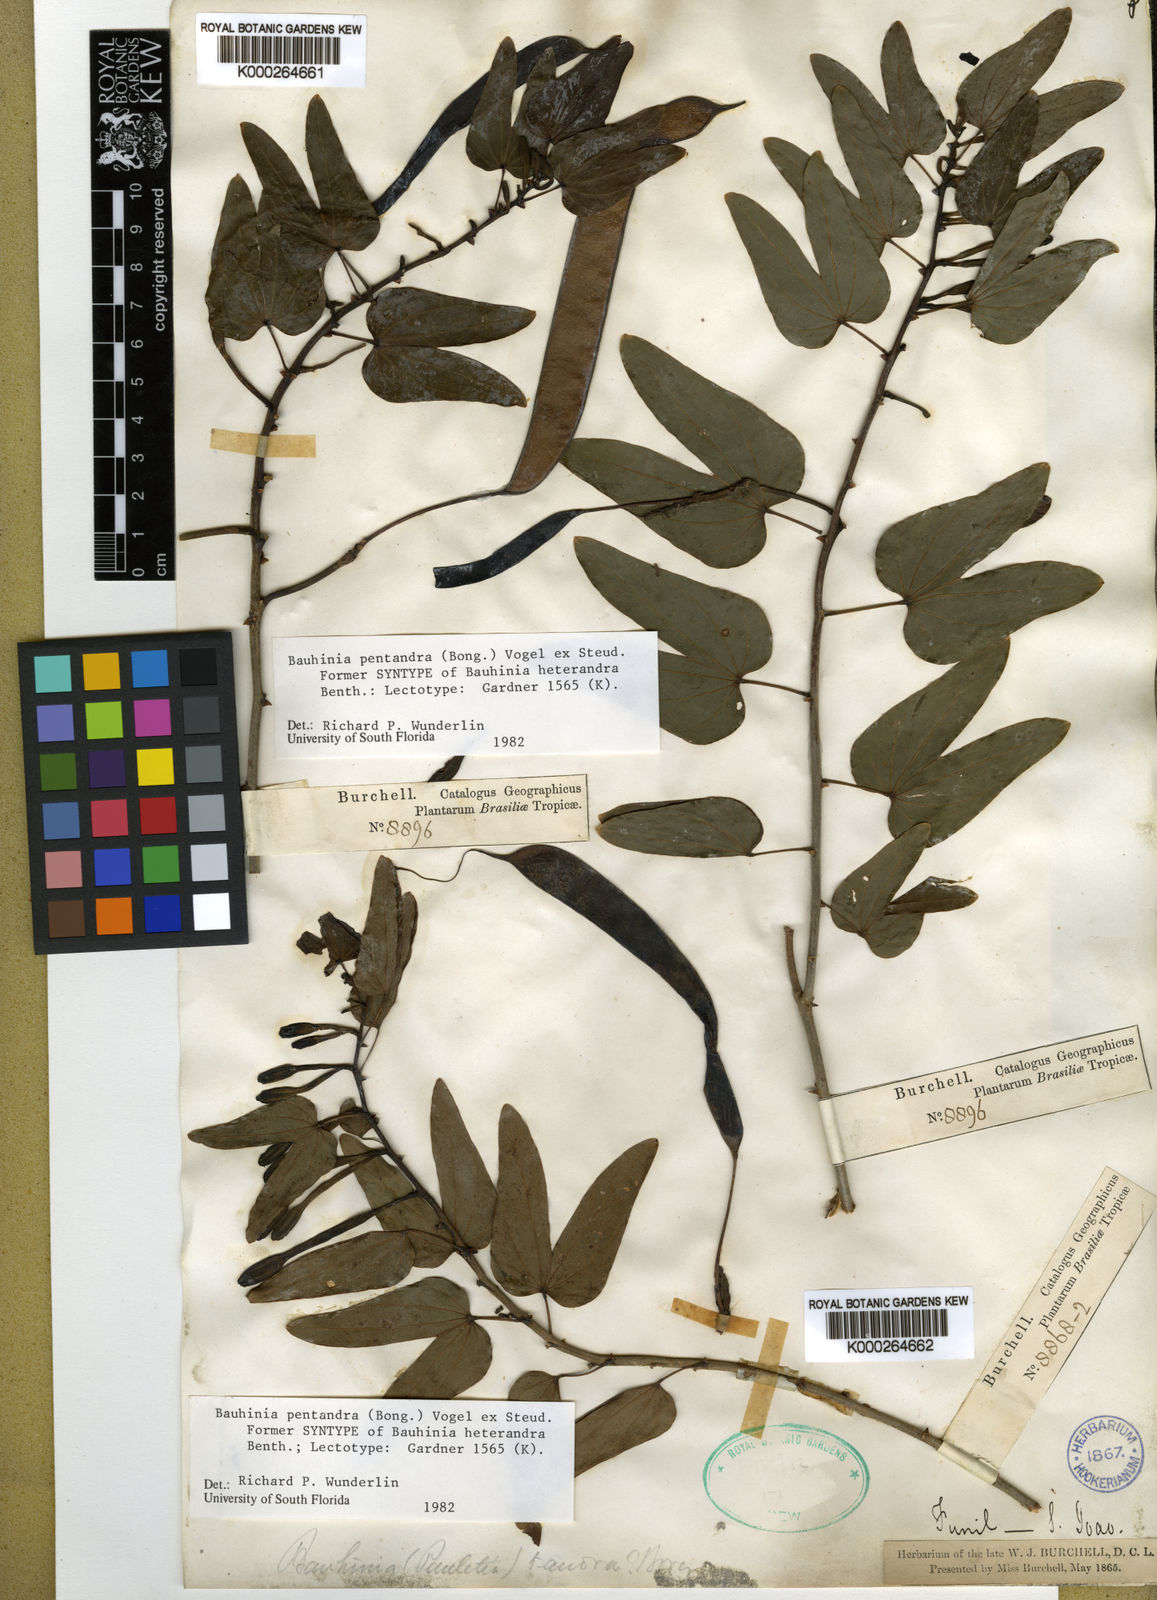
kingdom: Plantae
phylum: Tracheophyta
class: Magnoliopsida
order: Fabales
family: Fabaceae
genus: Bauhinia
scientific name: Bauhinia
